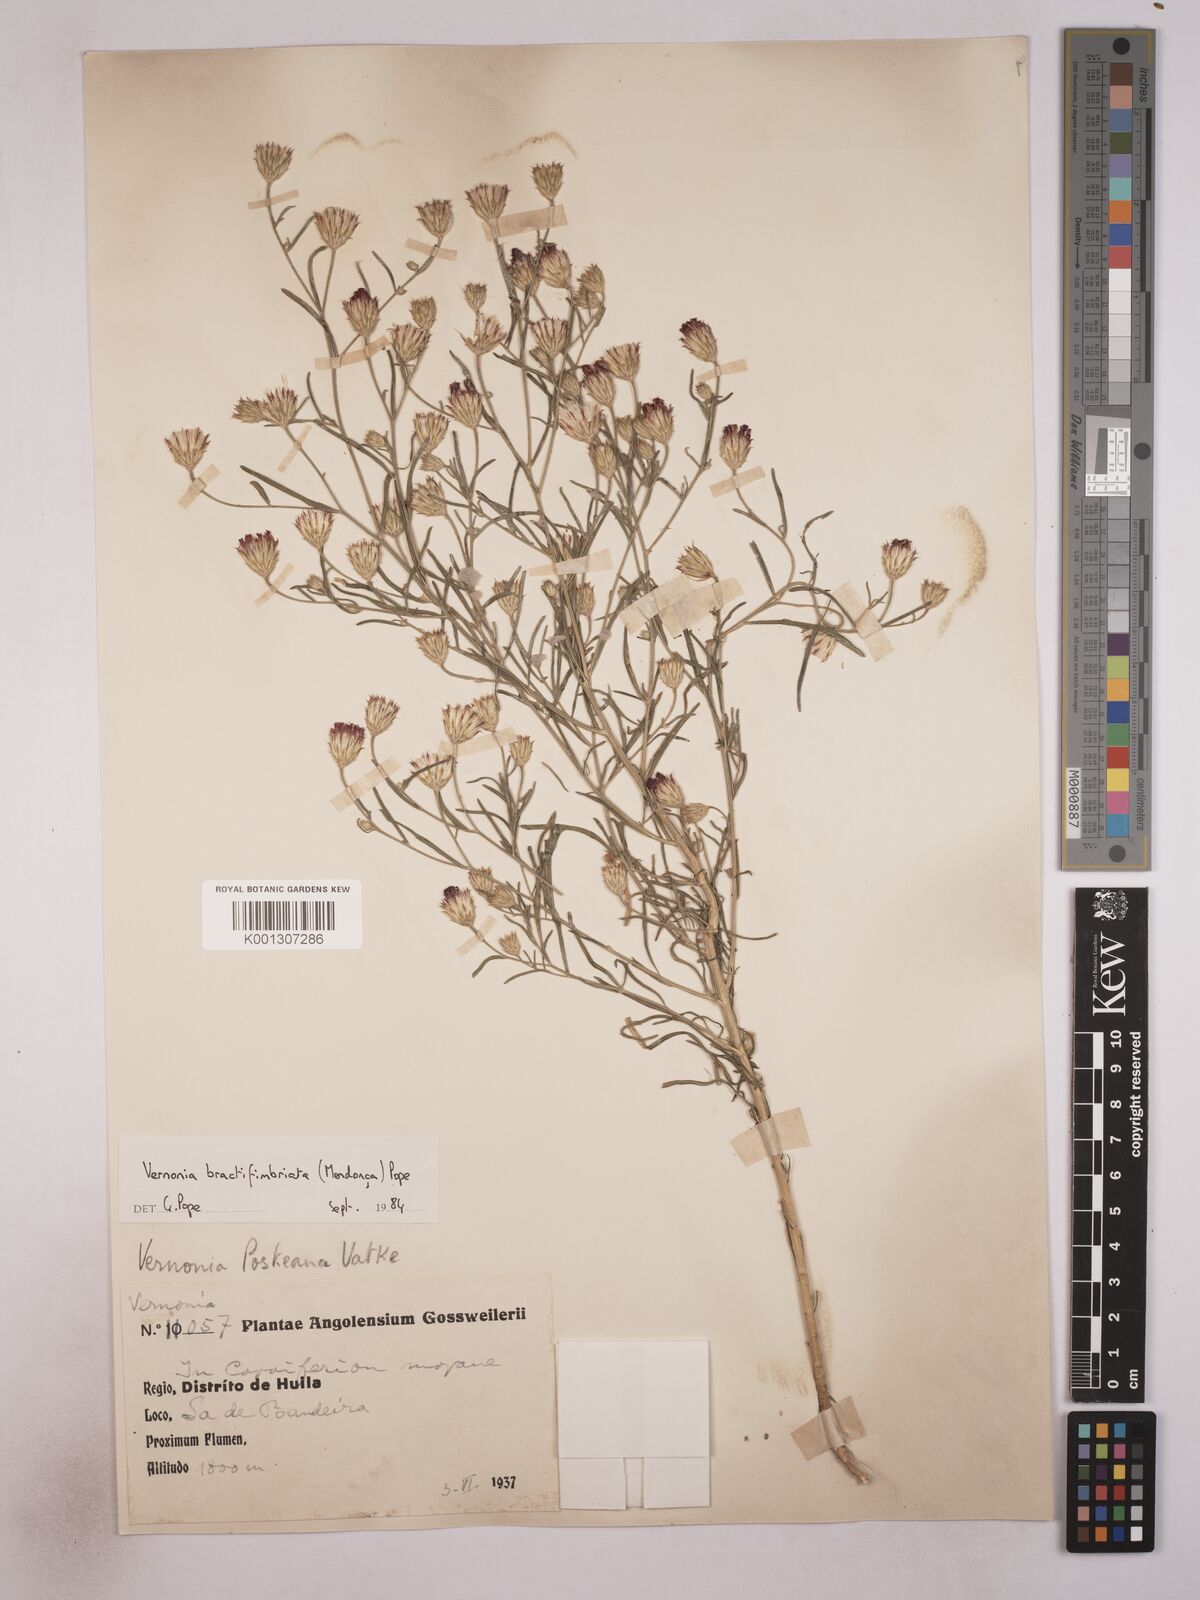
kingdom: Plantae
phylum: Tracheophyta
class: Magnoliopsida
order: Asterales
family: Asteraceae
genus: Vernonia
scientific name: Vernonia
